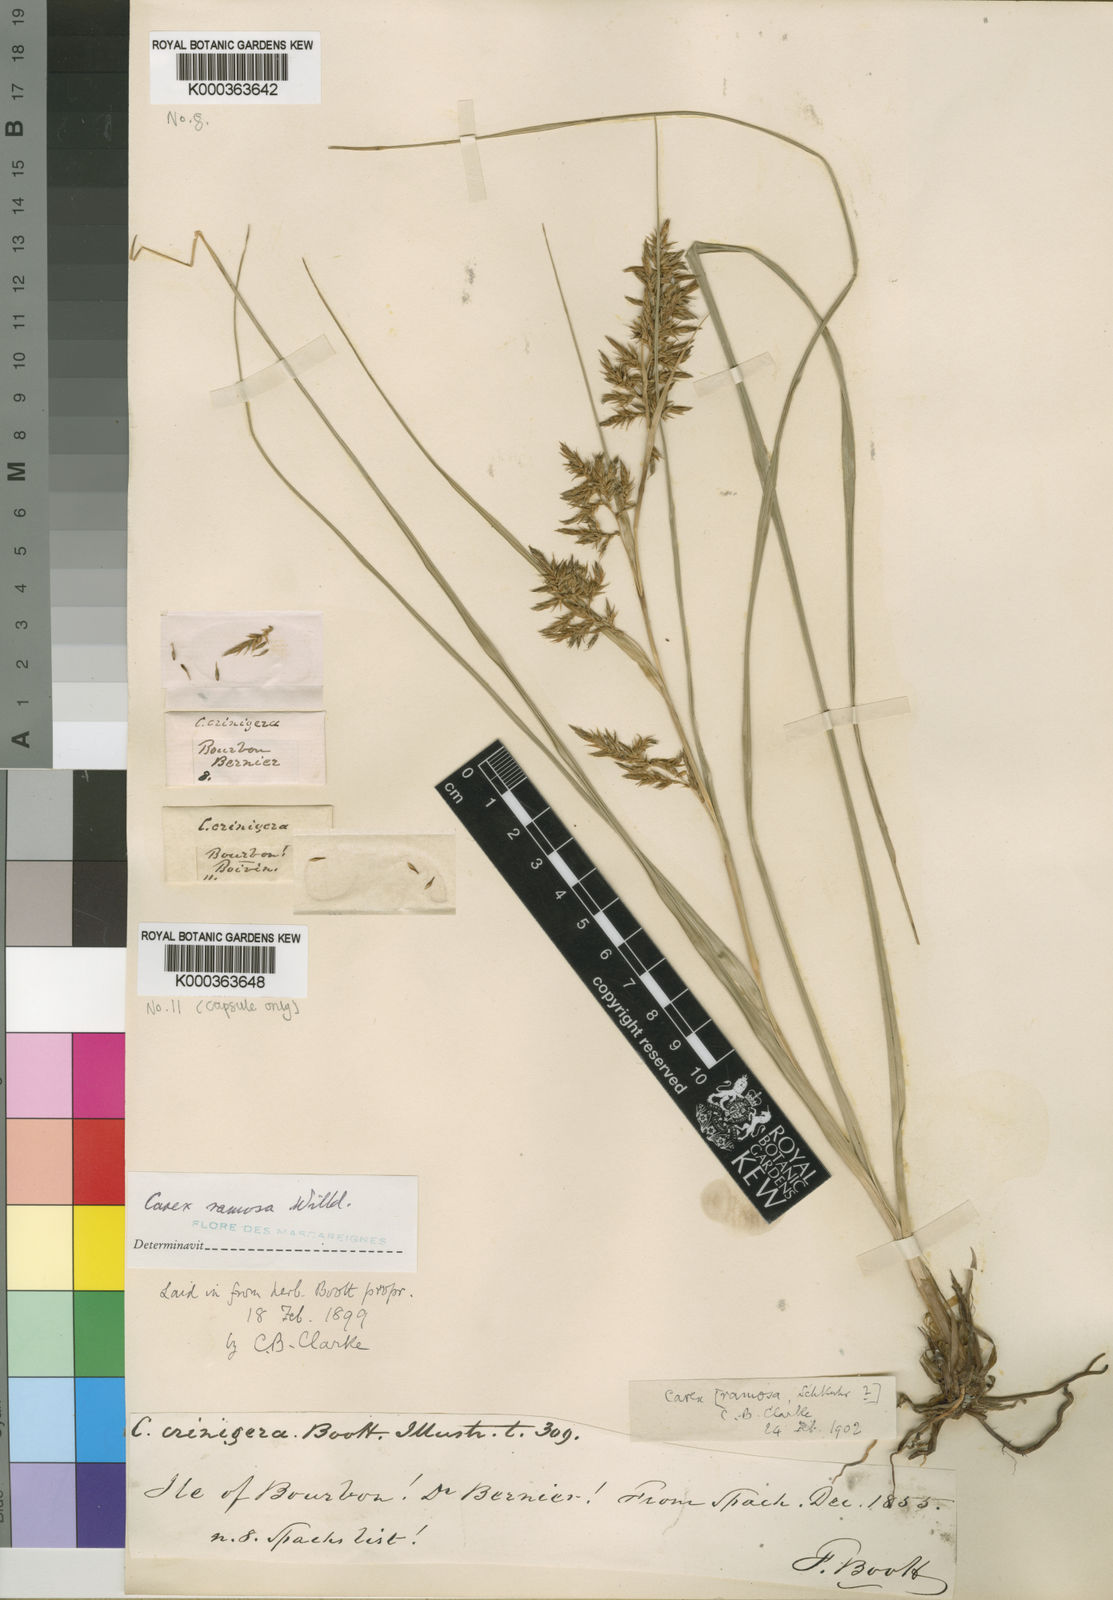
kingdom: Plantae
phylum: Tracheophyta
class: Liliopsida
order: Poales
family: Cyperaceae
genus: Carex
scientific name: Carex ramosa
